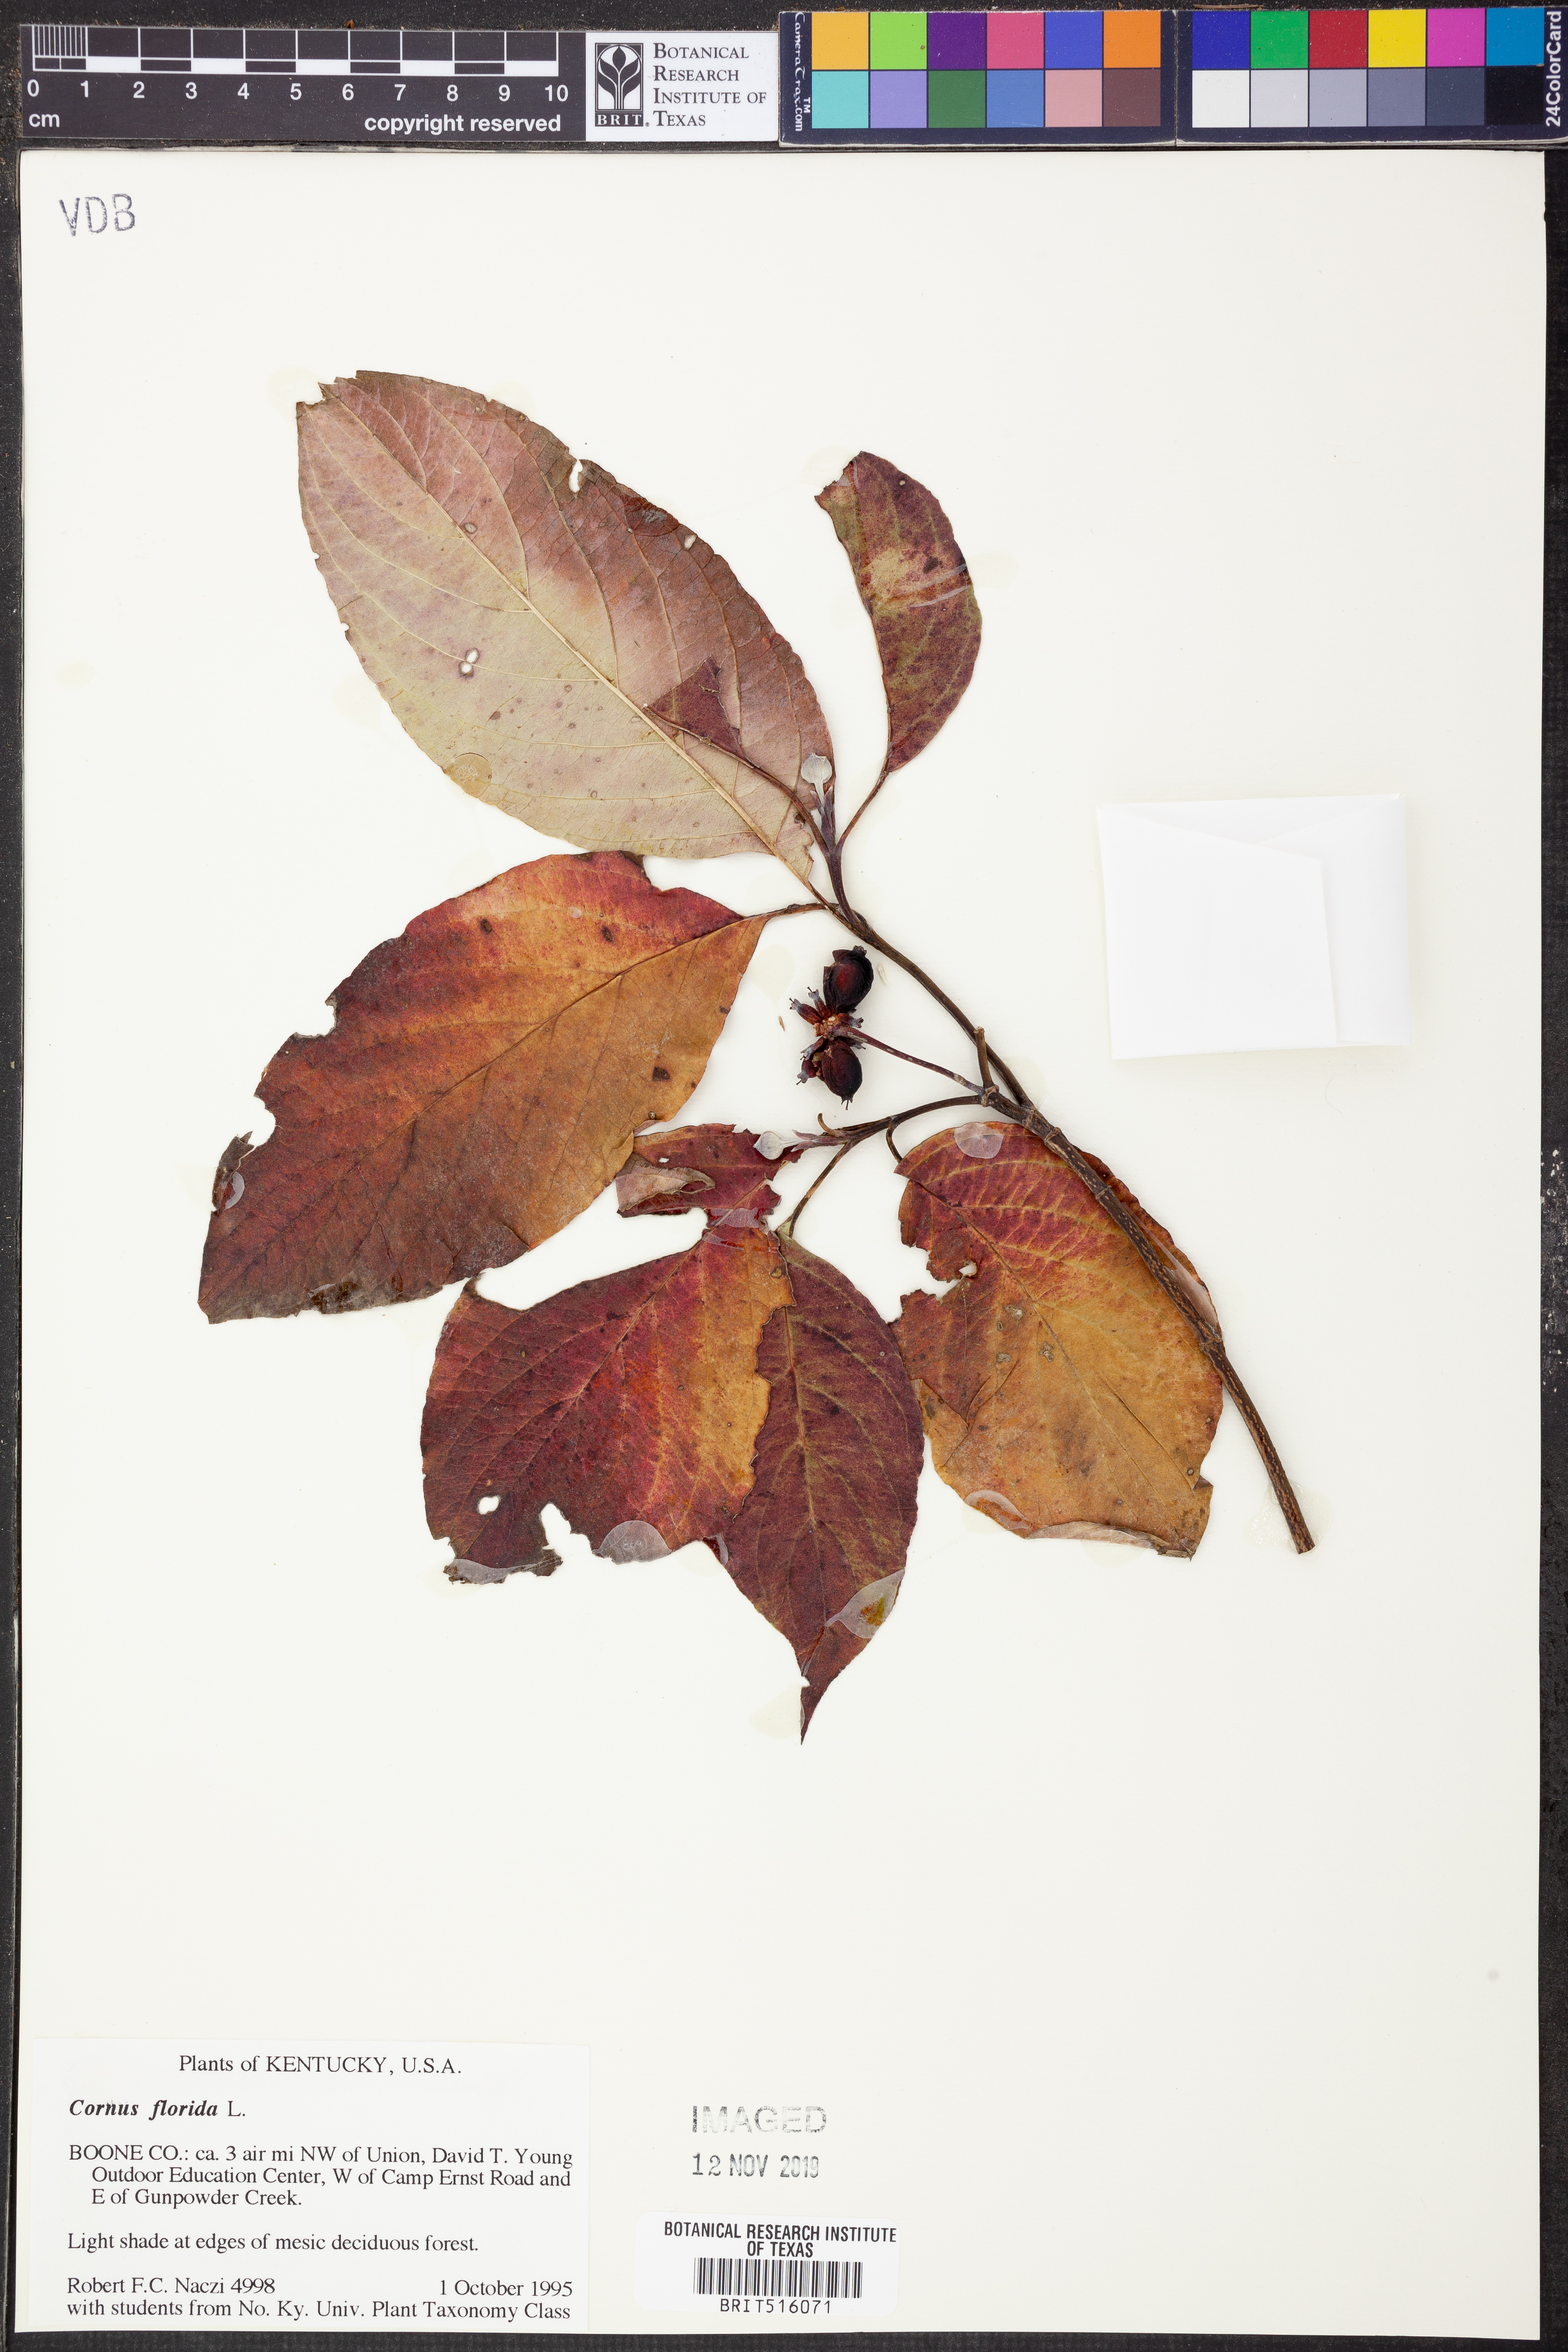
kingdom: Plantae
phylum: Tracheophyta
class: Magnoliopsida
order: Cornales
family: Cornaceae
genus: Cornus
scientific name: Cornus florida
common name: Flowering dogwood
